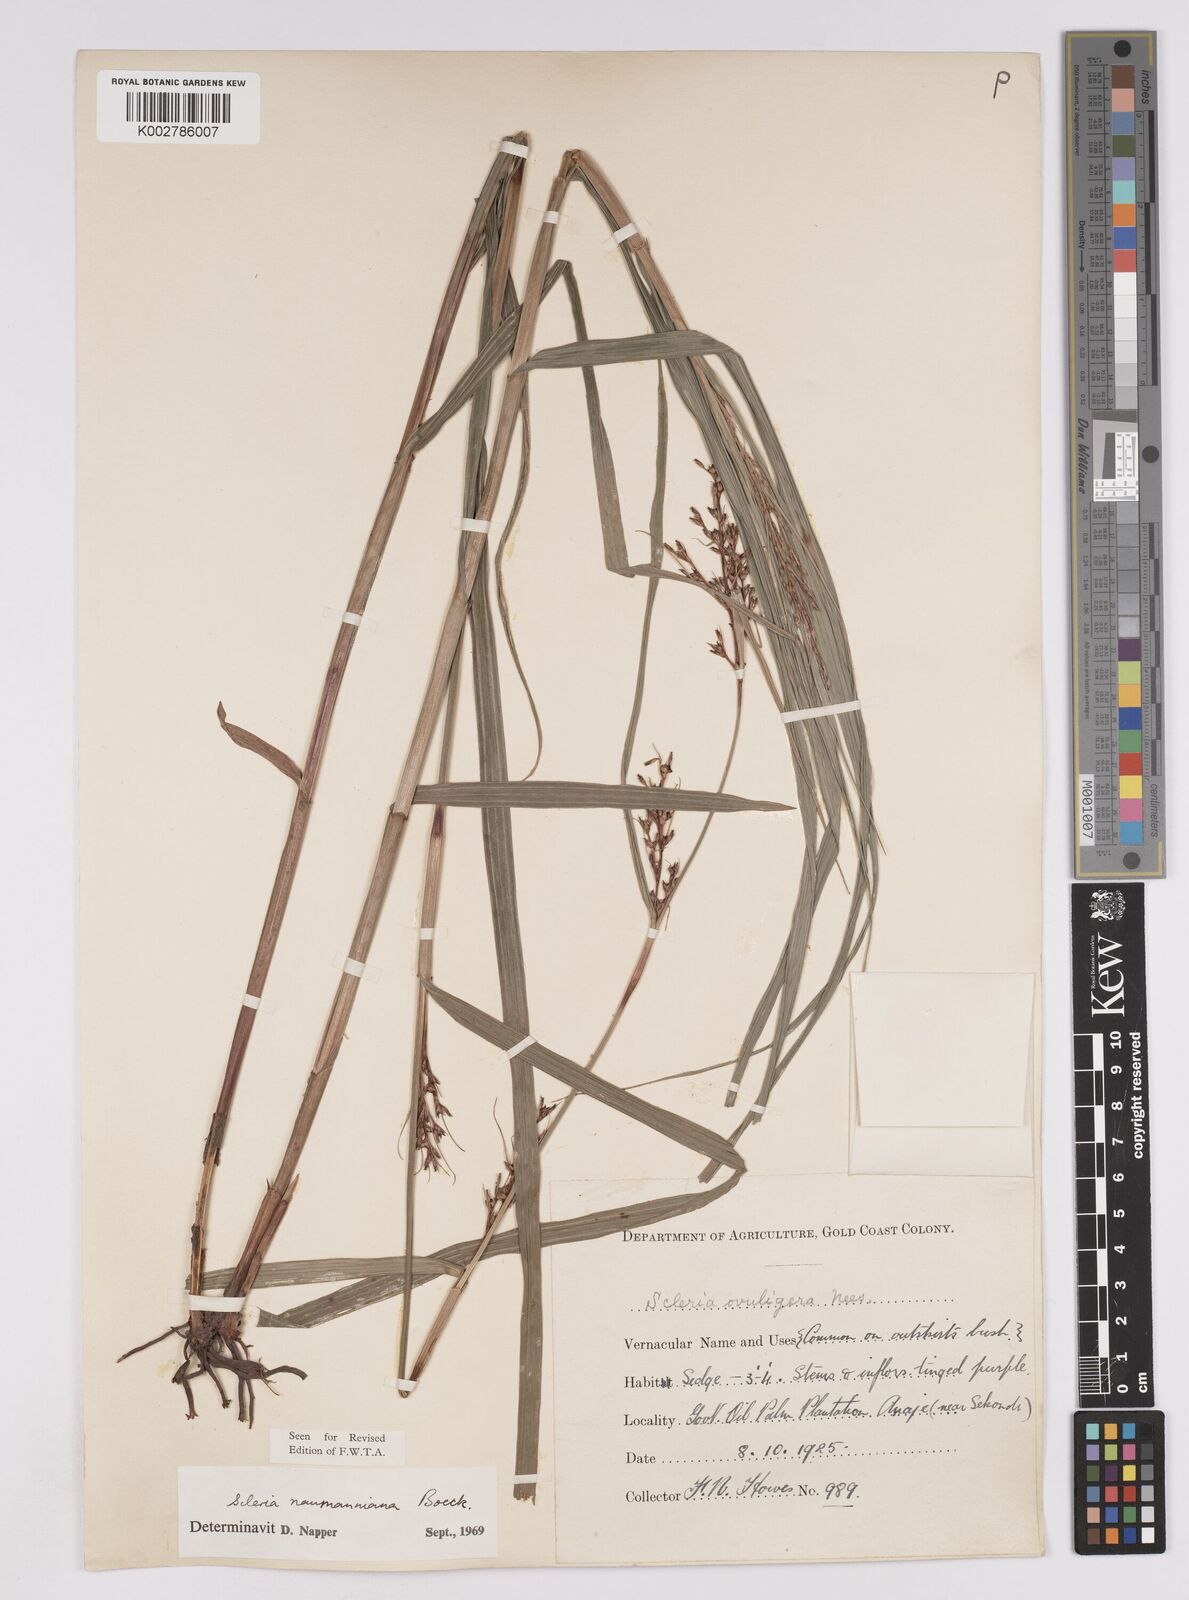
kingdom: Plantae
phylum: Tracheophyta
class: Liliopsida
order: Poales
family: Cyperaceae
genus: Scleria
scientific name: Scleria naumanniana
